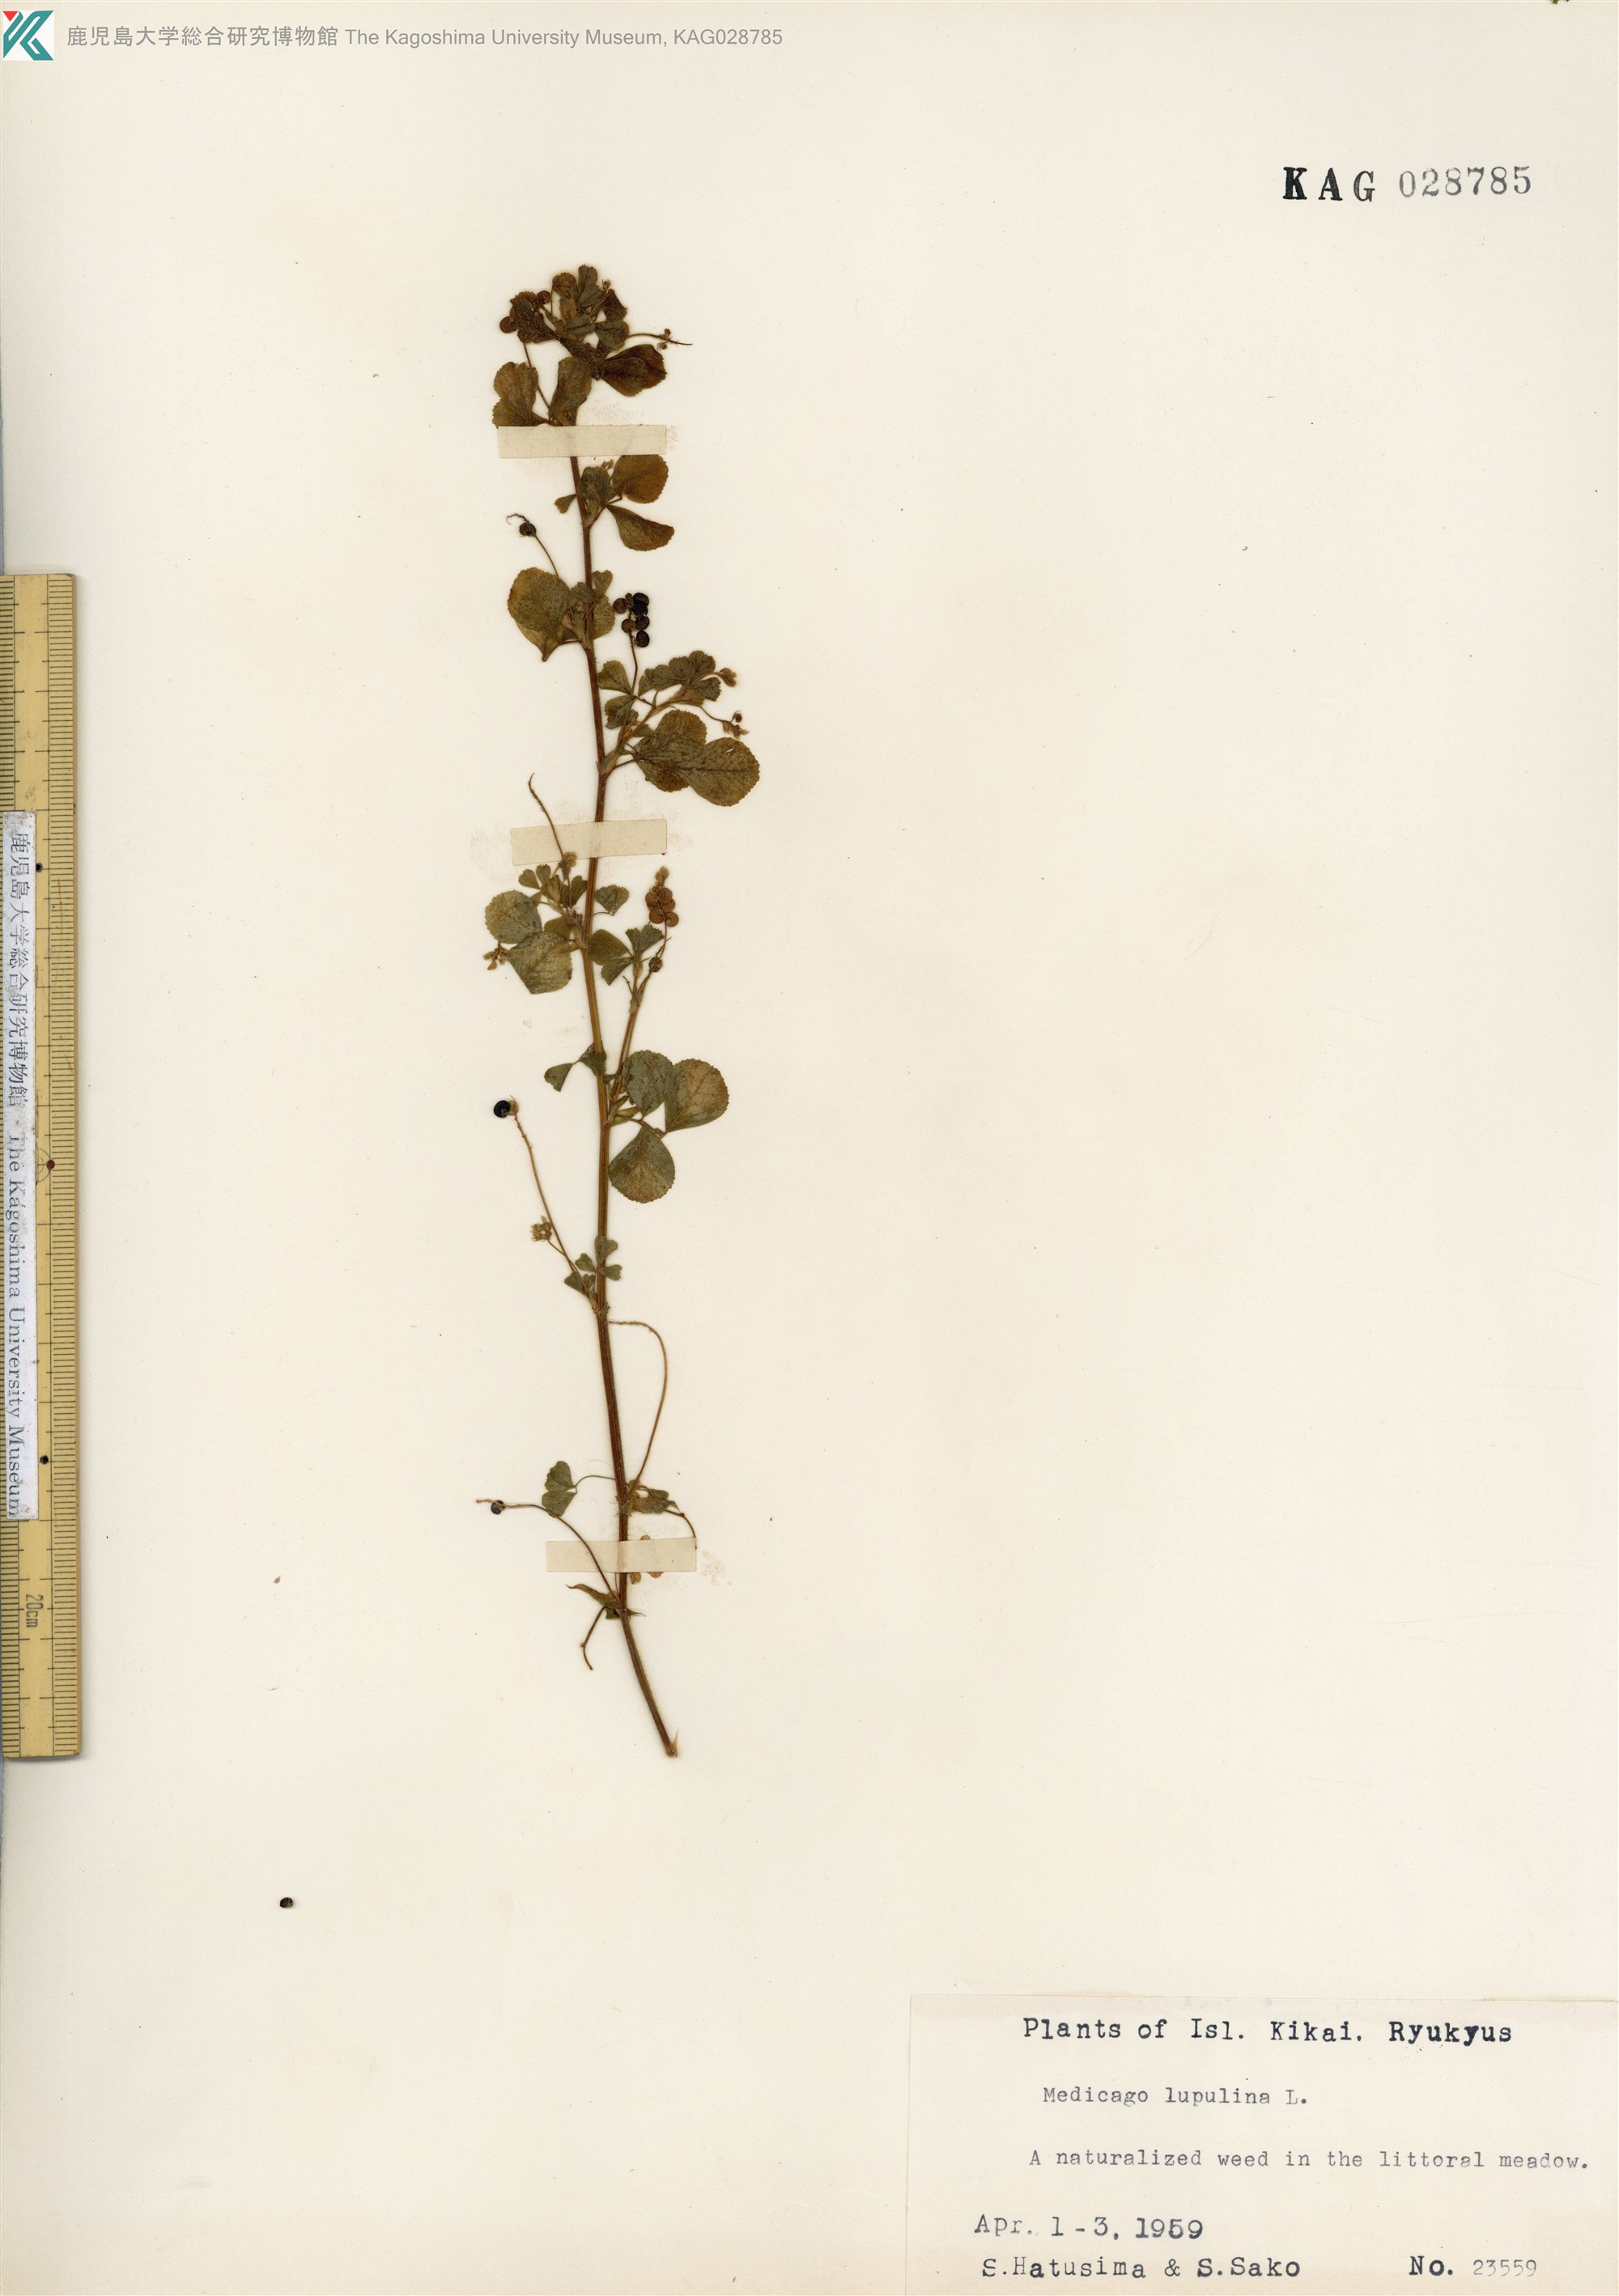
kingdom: Plantae
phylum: Tracheophyta
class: Magnoliopsida
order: Fabales
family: Fabaceae
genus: Medicago
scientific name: Medicago lupulina
